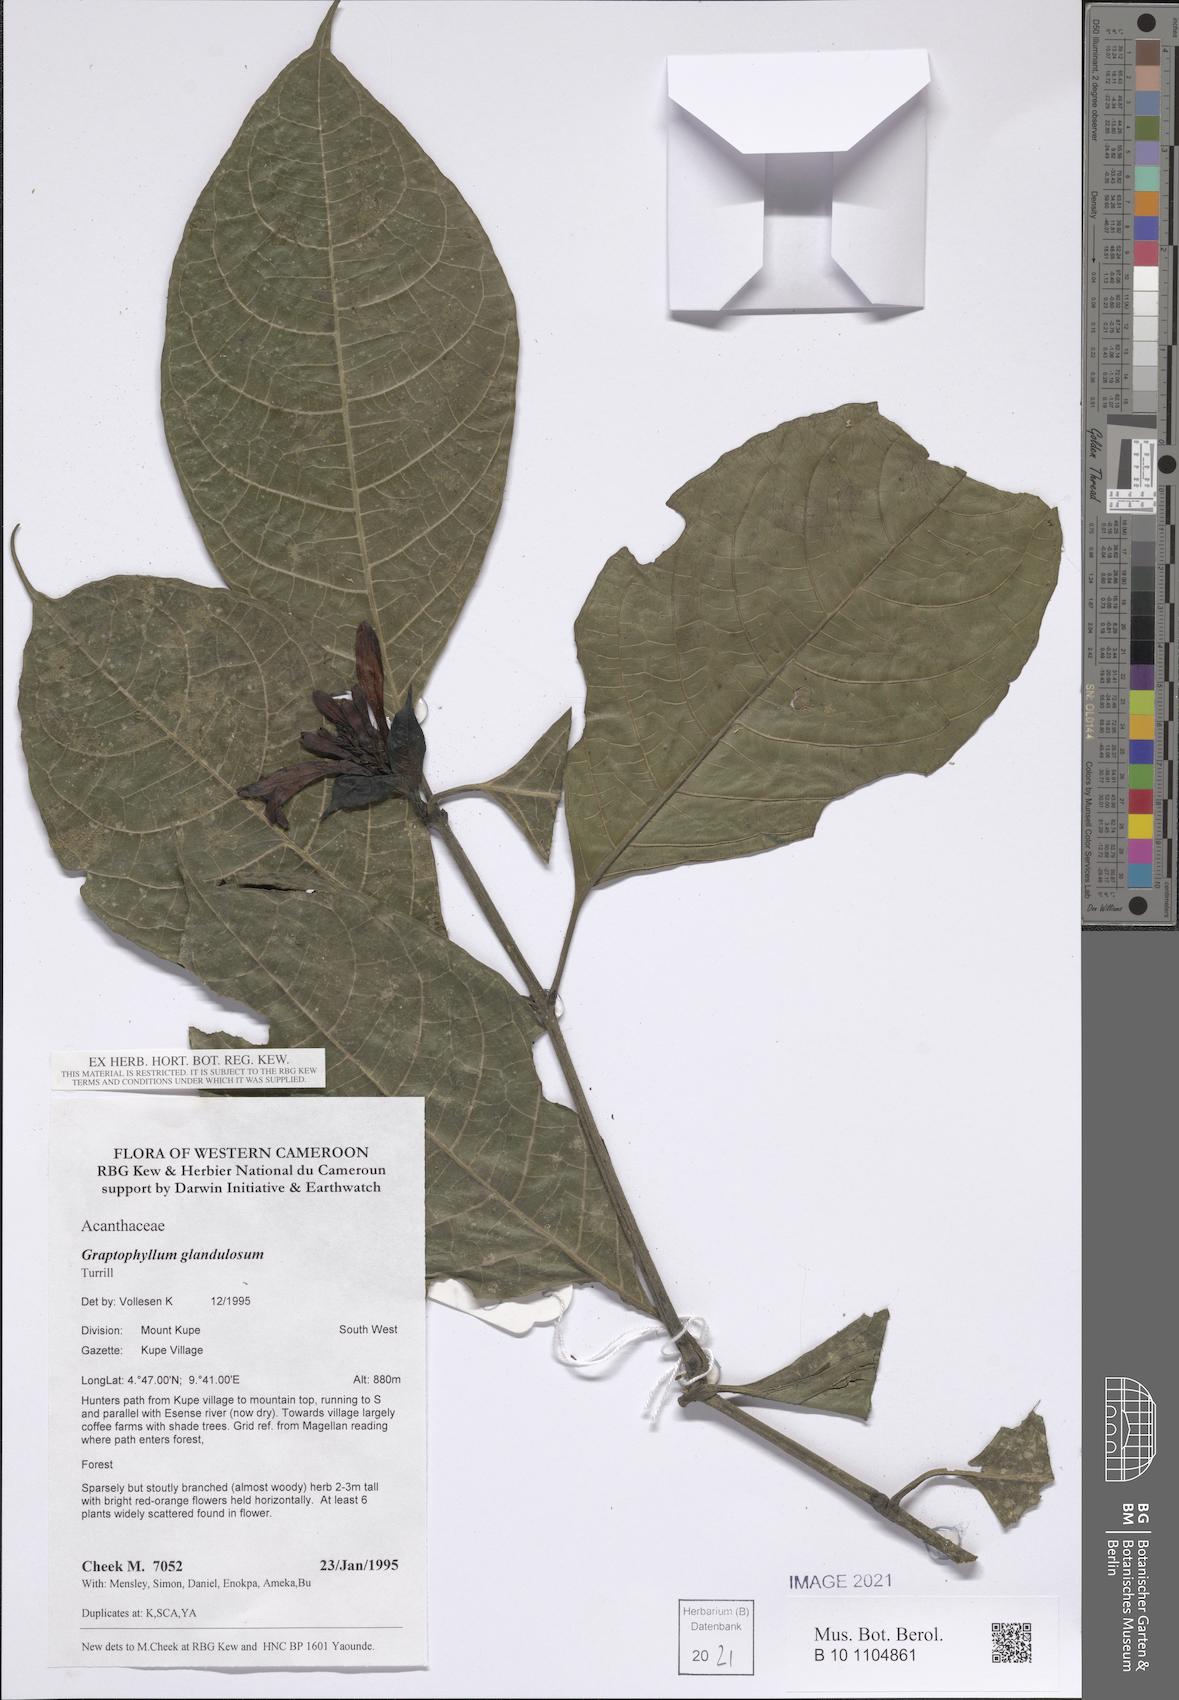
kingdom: Plantae
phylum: Tracheophyta
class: Magnoliopsida
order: Lamiales
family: Acanthaceae
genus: Graptophyllum
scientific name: Graptophyllum glandulosum
